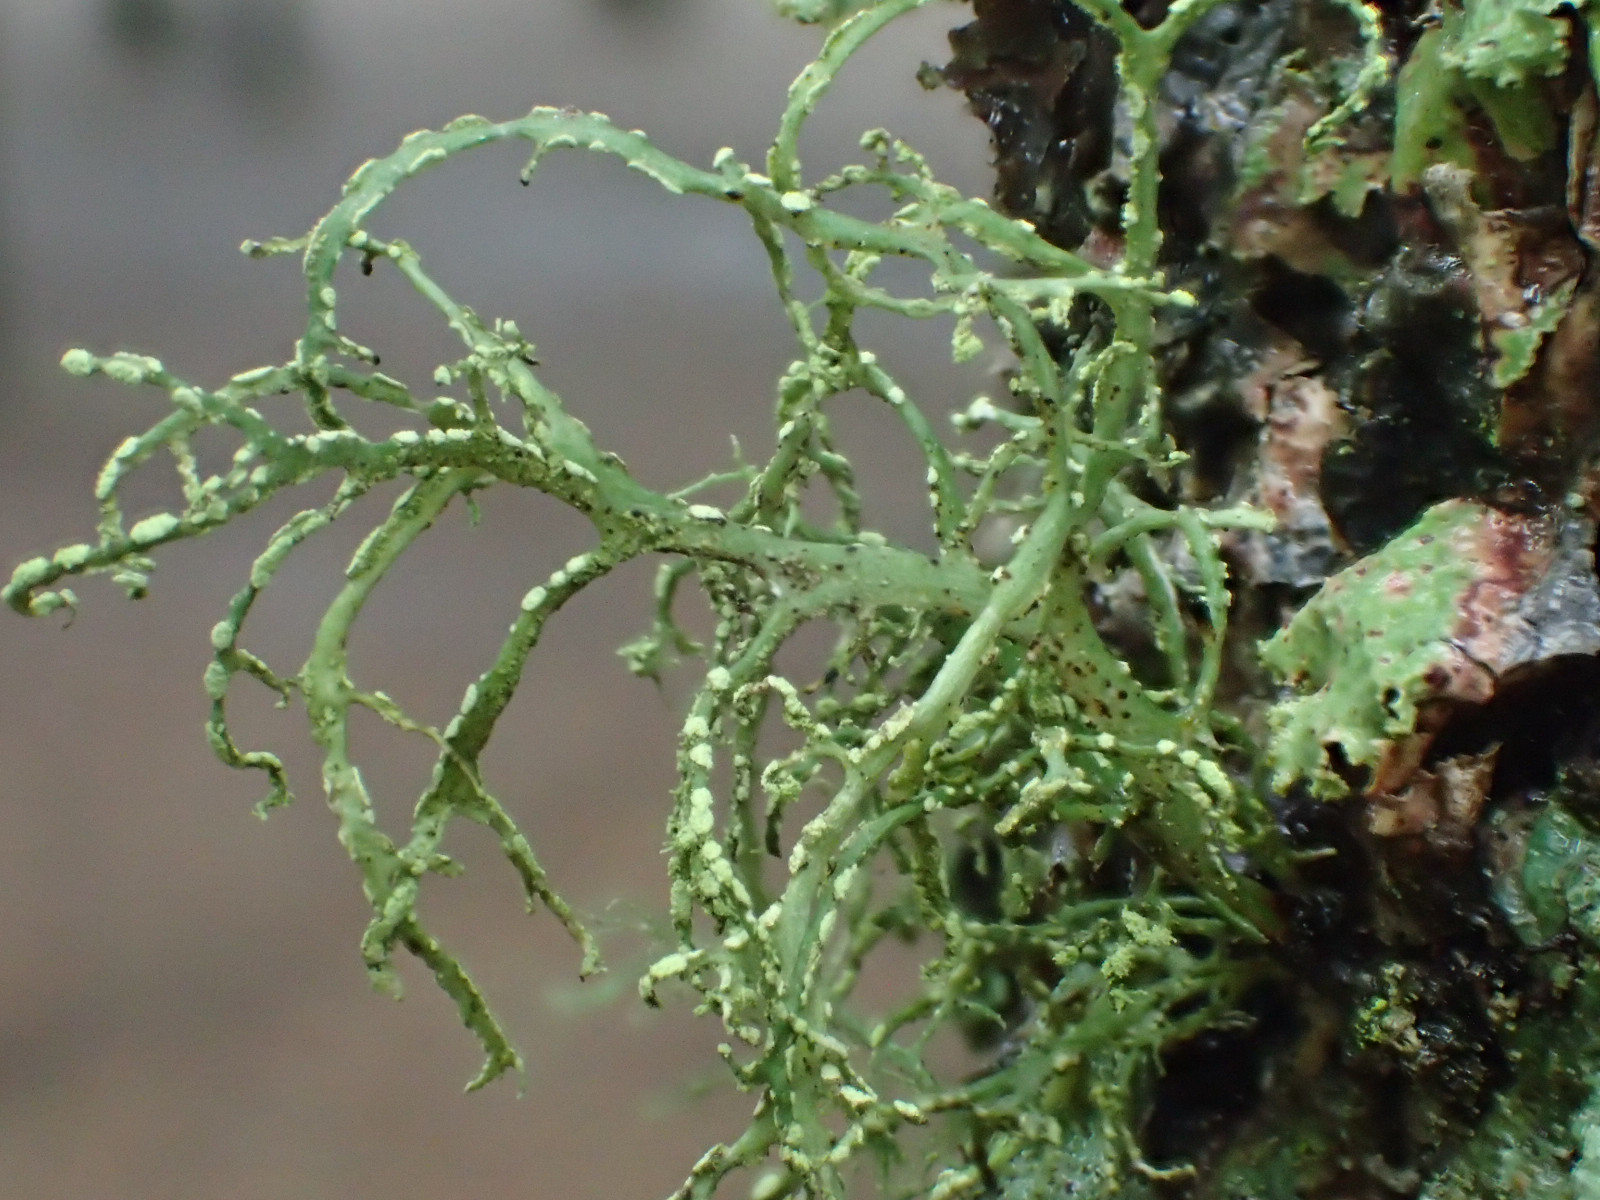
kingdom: Fungi
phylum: Ascomycota
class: Lecanoromycetes
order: Lecanorales
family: Ramalinaceae
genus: Ramalina
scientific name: Ramalina farinacea
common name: melet grenlav
